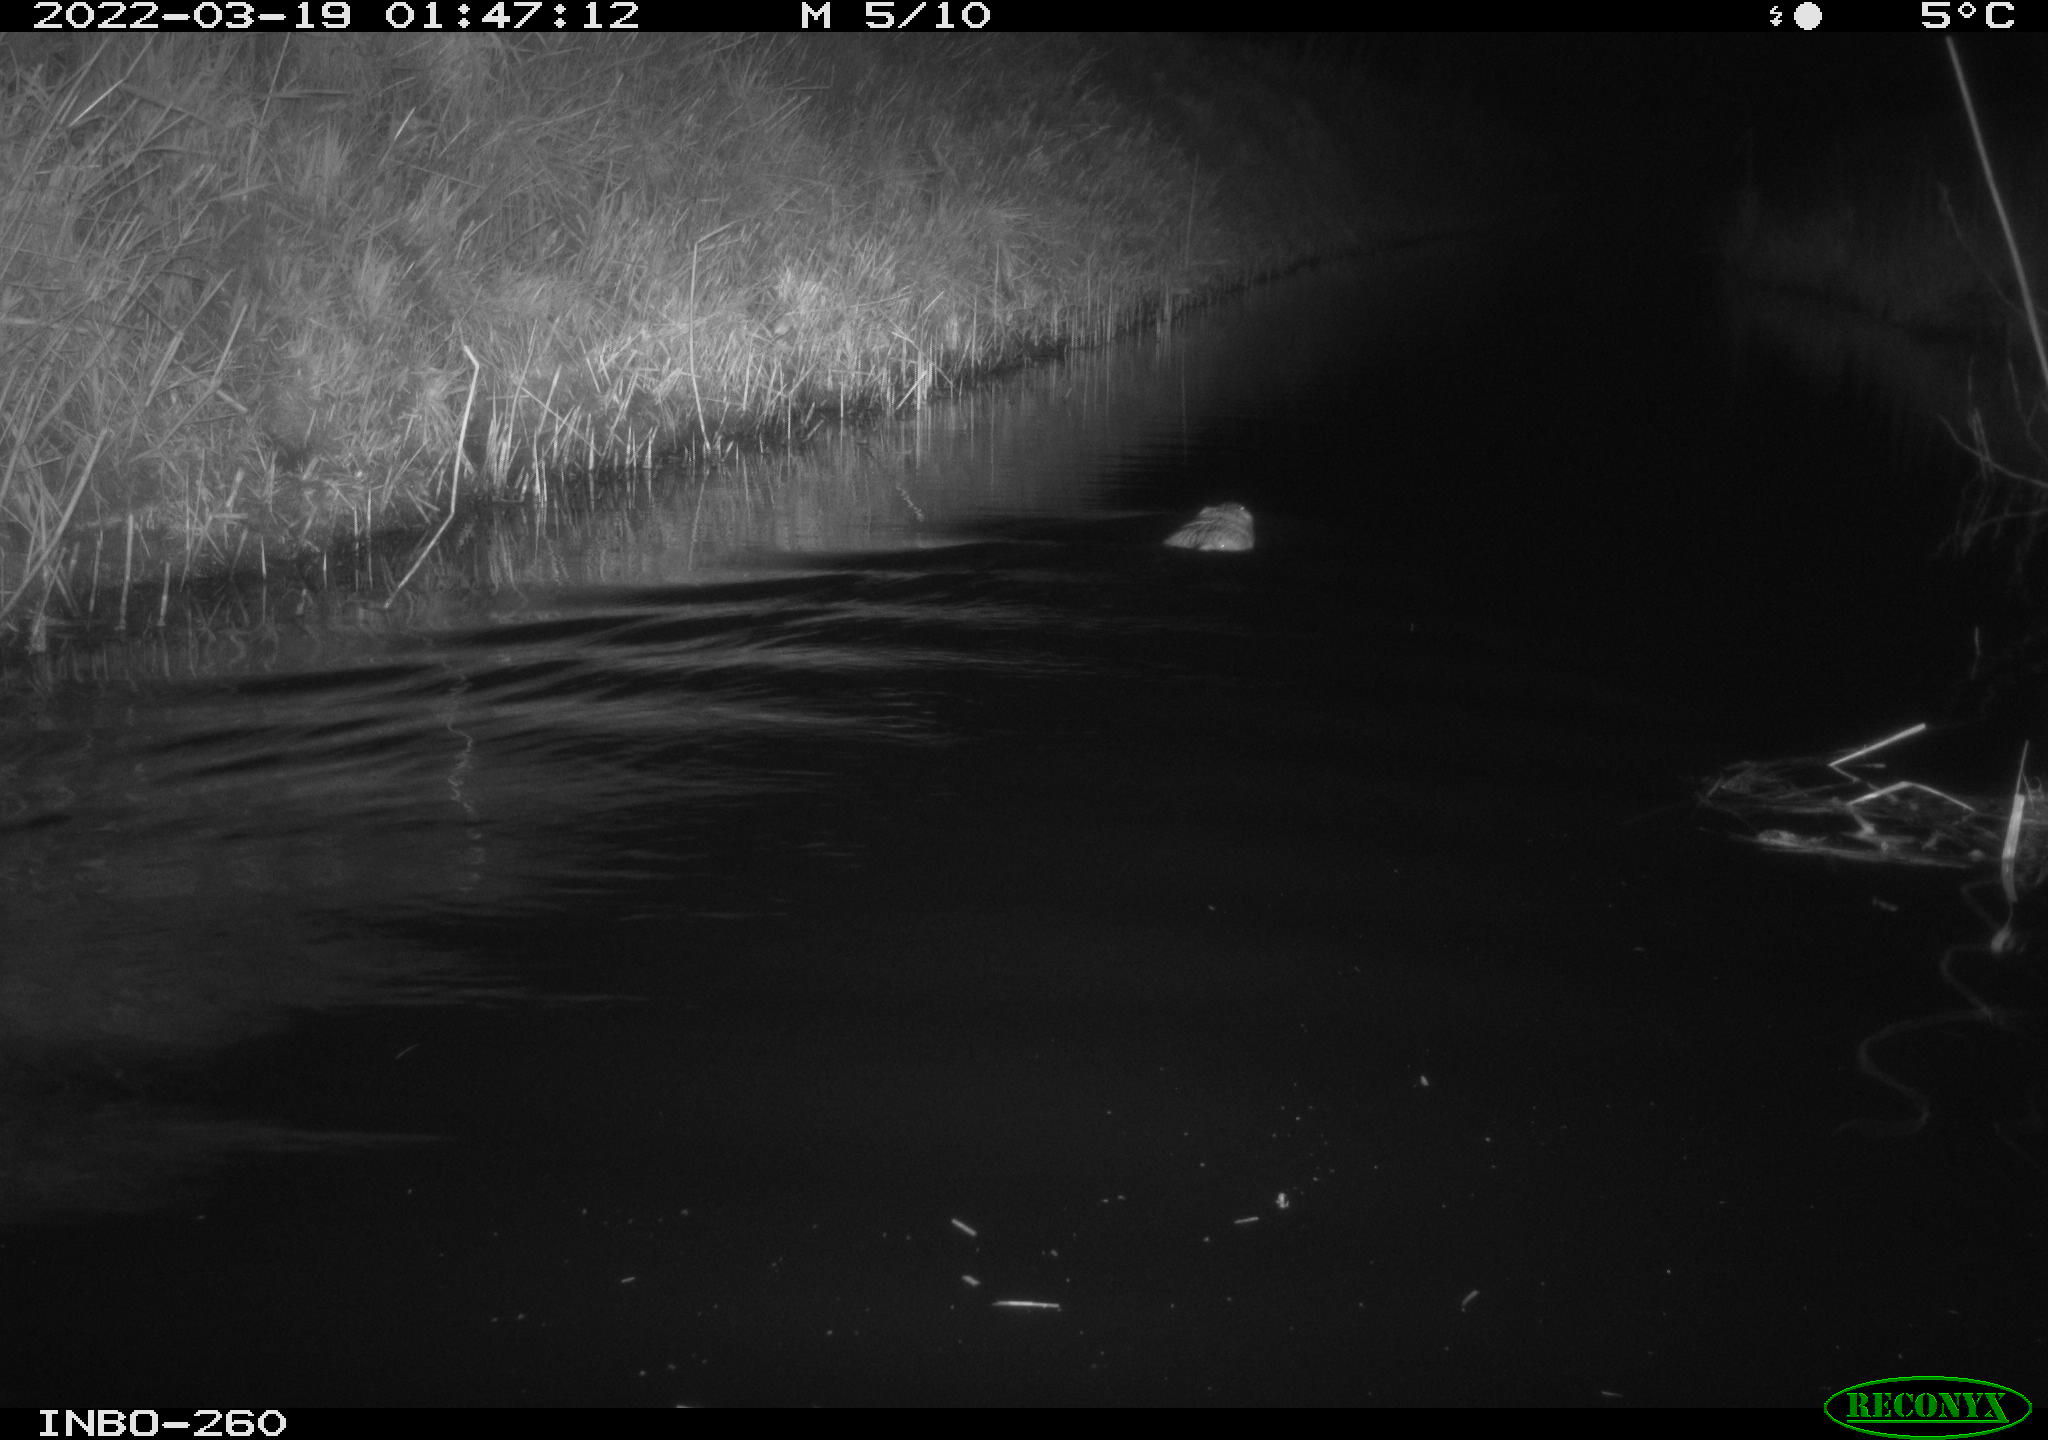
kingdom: Animalia
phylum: Chordata
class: Mammalia
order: Rodentia
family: Cricetidae
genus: Ondatra
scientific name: Ondatra zibethicus
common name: Muskrat
